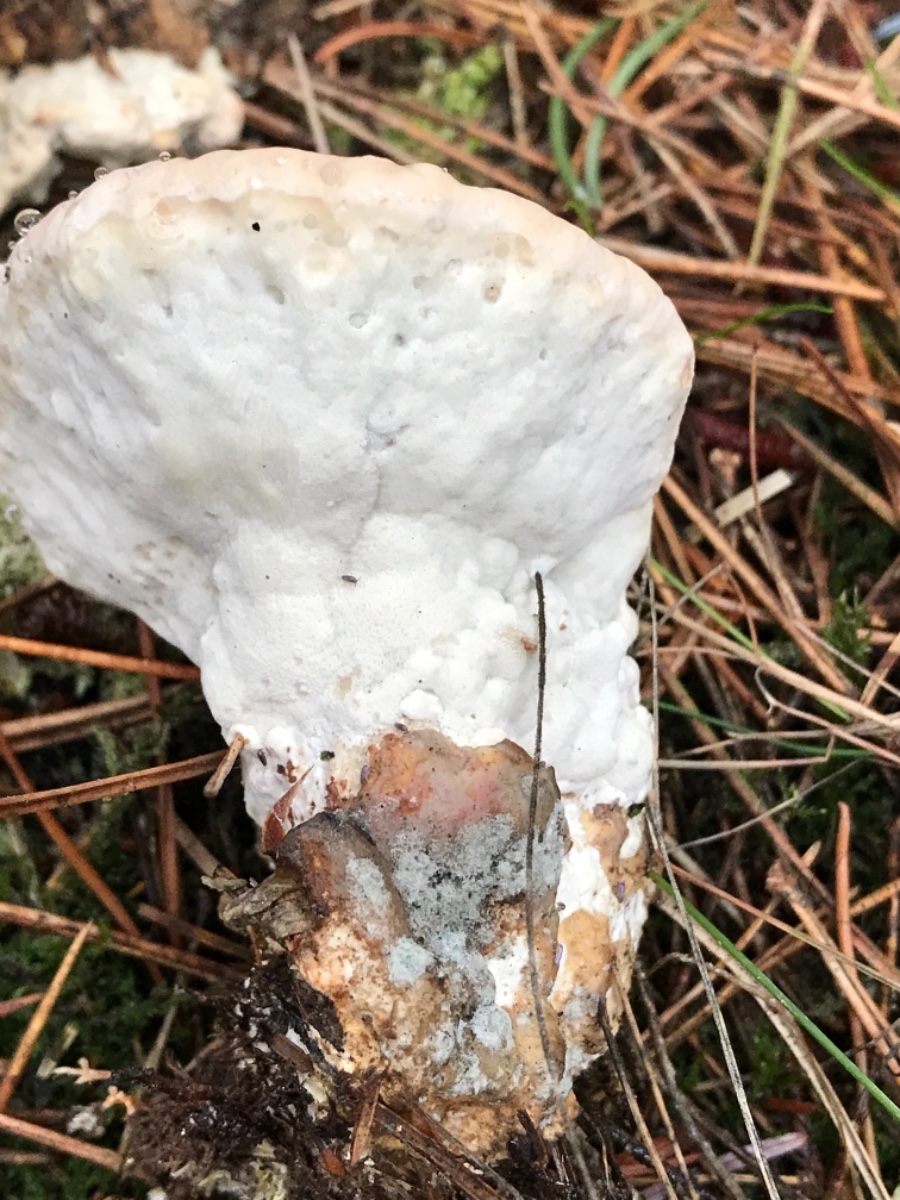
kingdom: Fungi
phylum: Basidiomycota
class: Agaricomycetes
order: Polyporales
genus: Calcipostia
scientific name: Calcipostia guttulata
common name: dråbe-kødporesvamp
